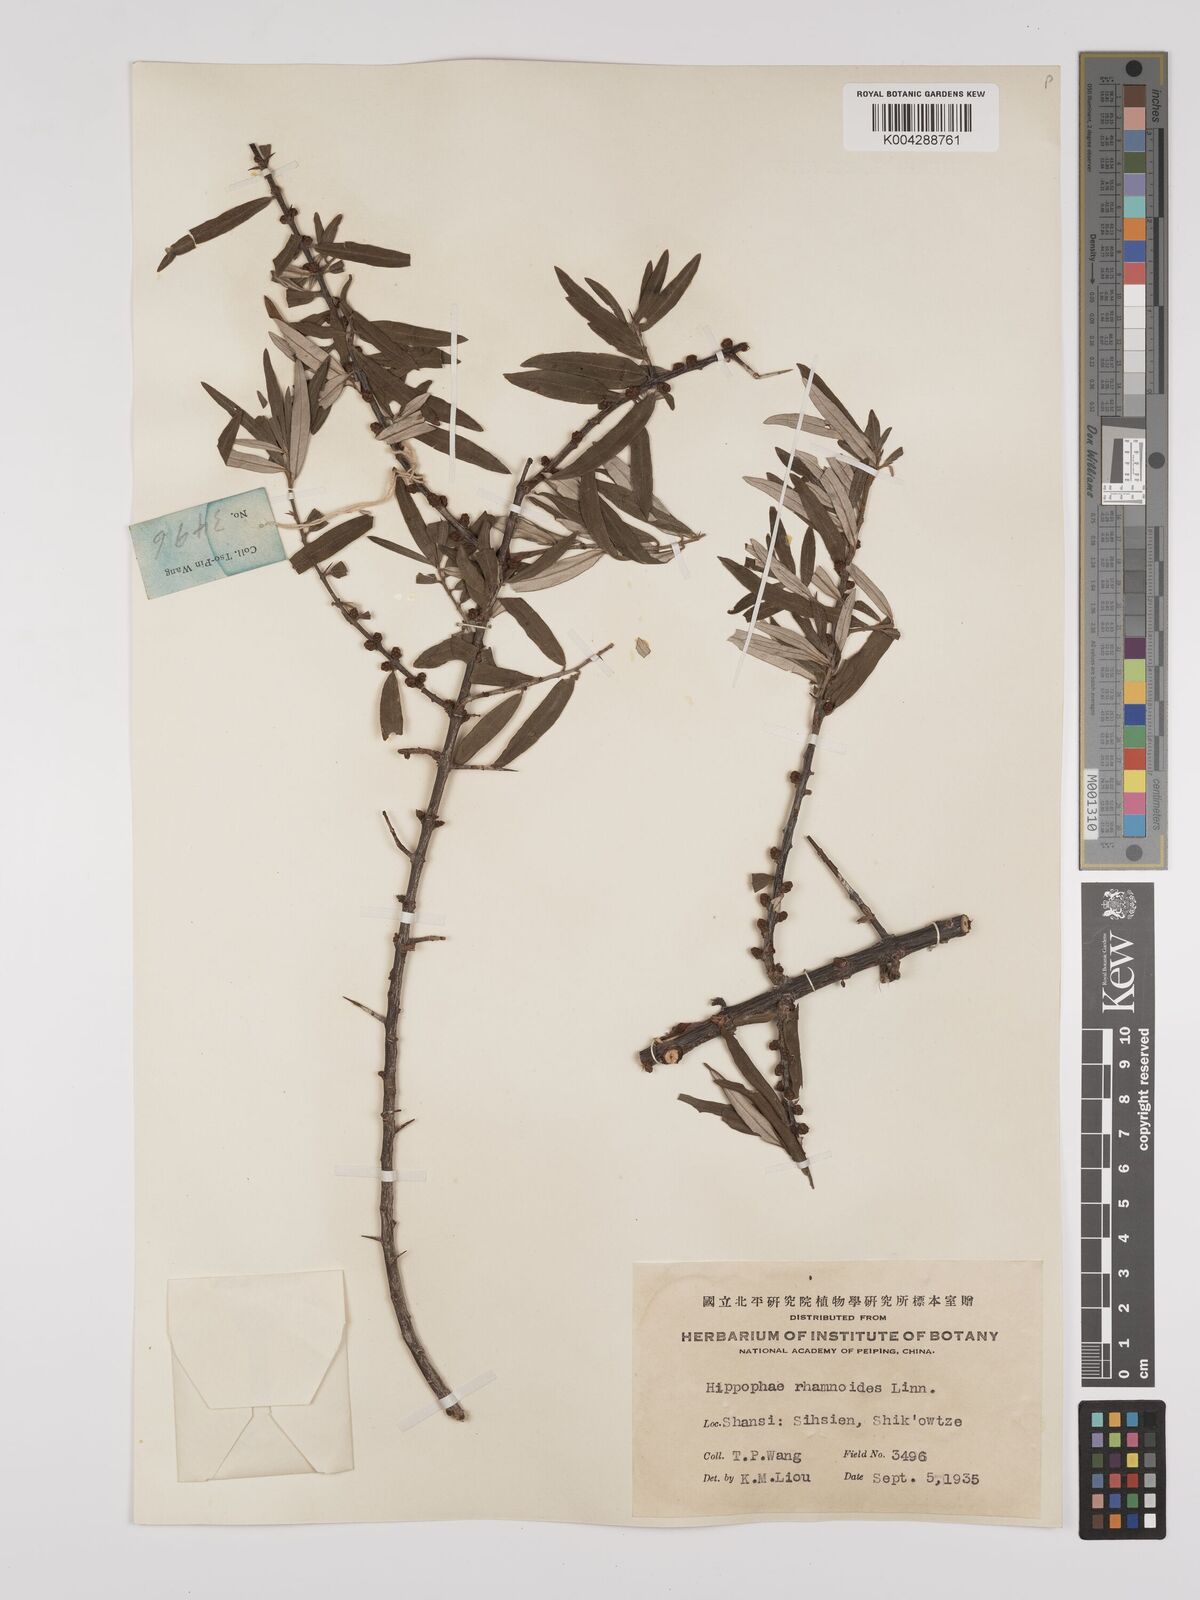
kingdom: Plantae
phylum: Tracheophyta
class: Magnoliopsida
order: Rosales
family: Elaeagnaceae
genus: Hippophae
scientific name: Hippophae rhamnoides
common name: Sea-buckthorn
